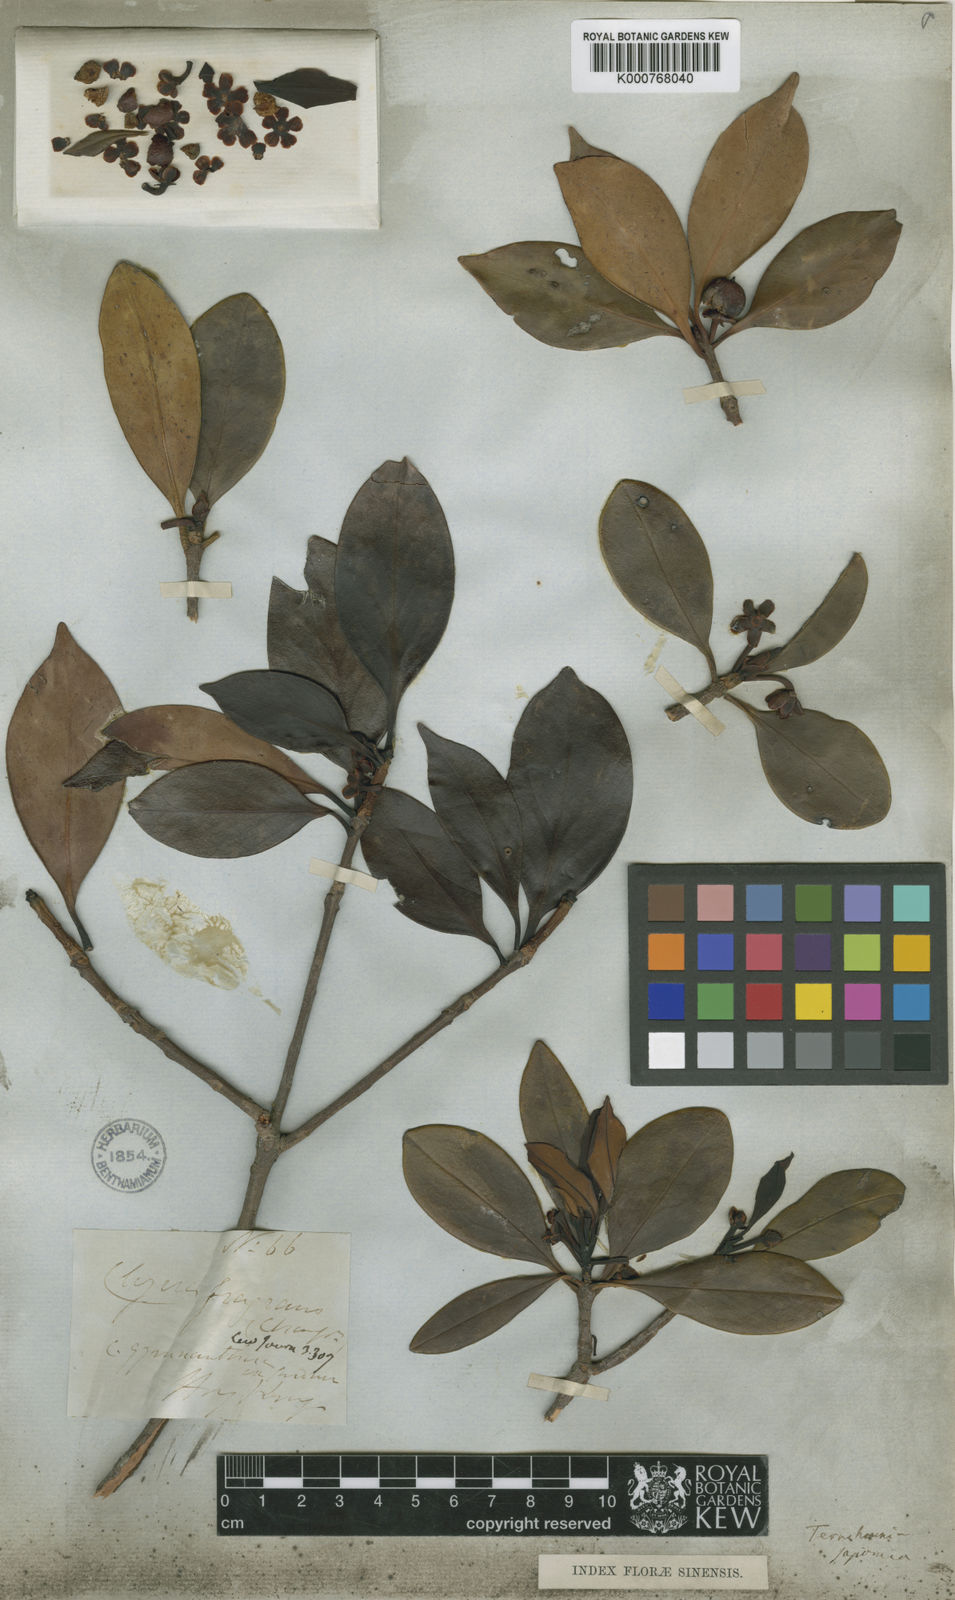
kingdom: Plantae
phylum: Tracheophyta
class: Magnoliopsida
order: Ericales
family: Pentaphylacaceae
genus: Ternstroemia
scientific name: Ternstroemia
